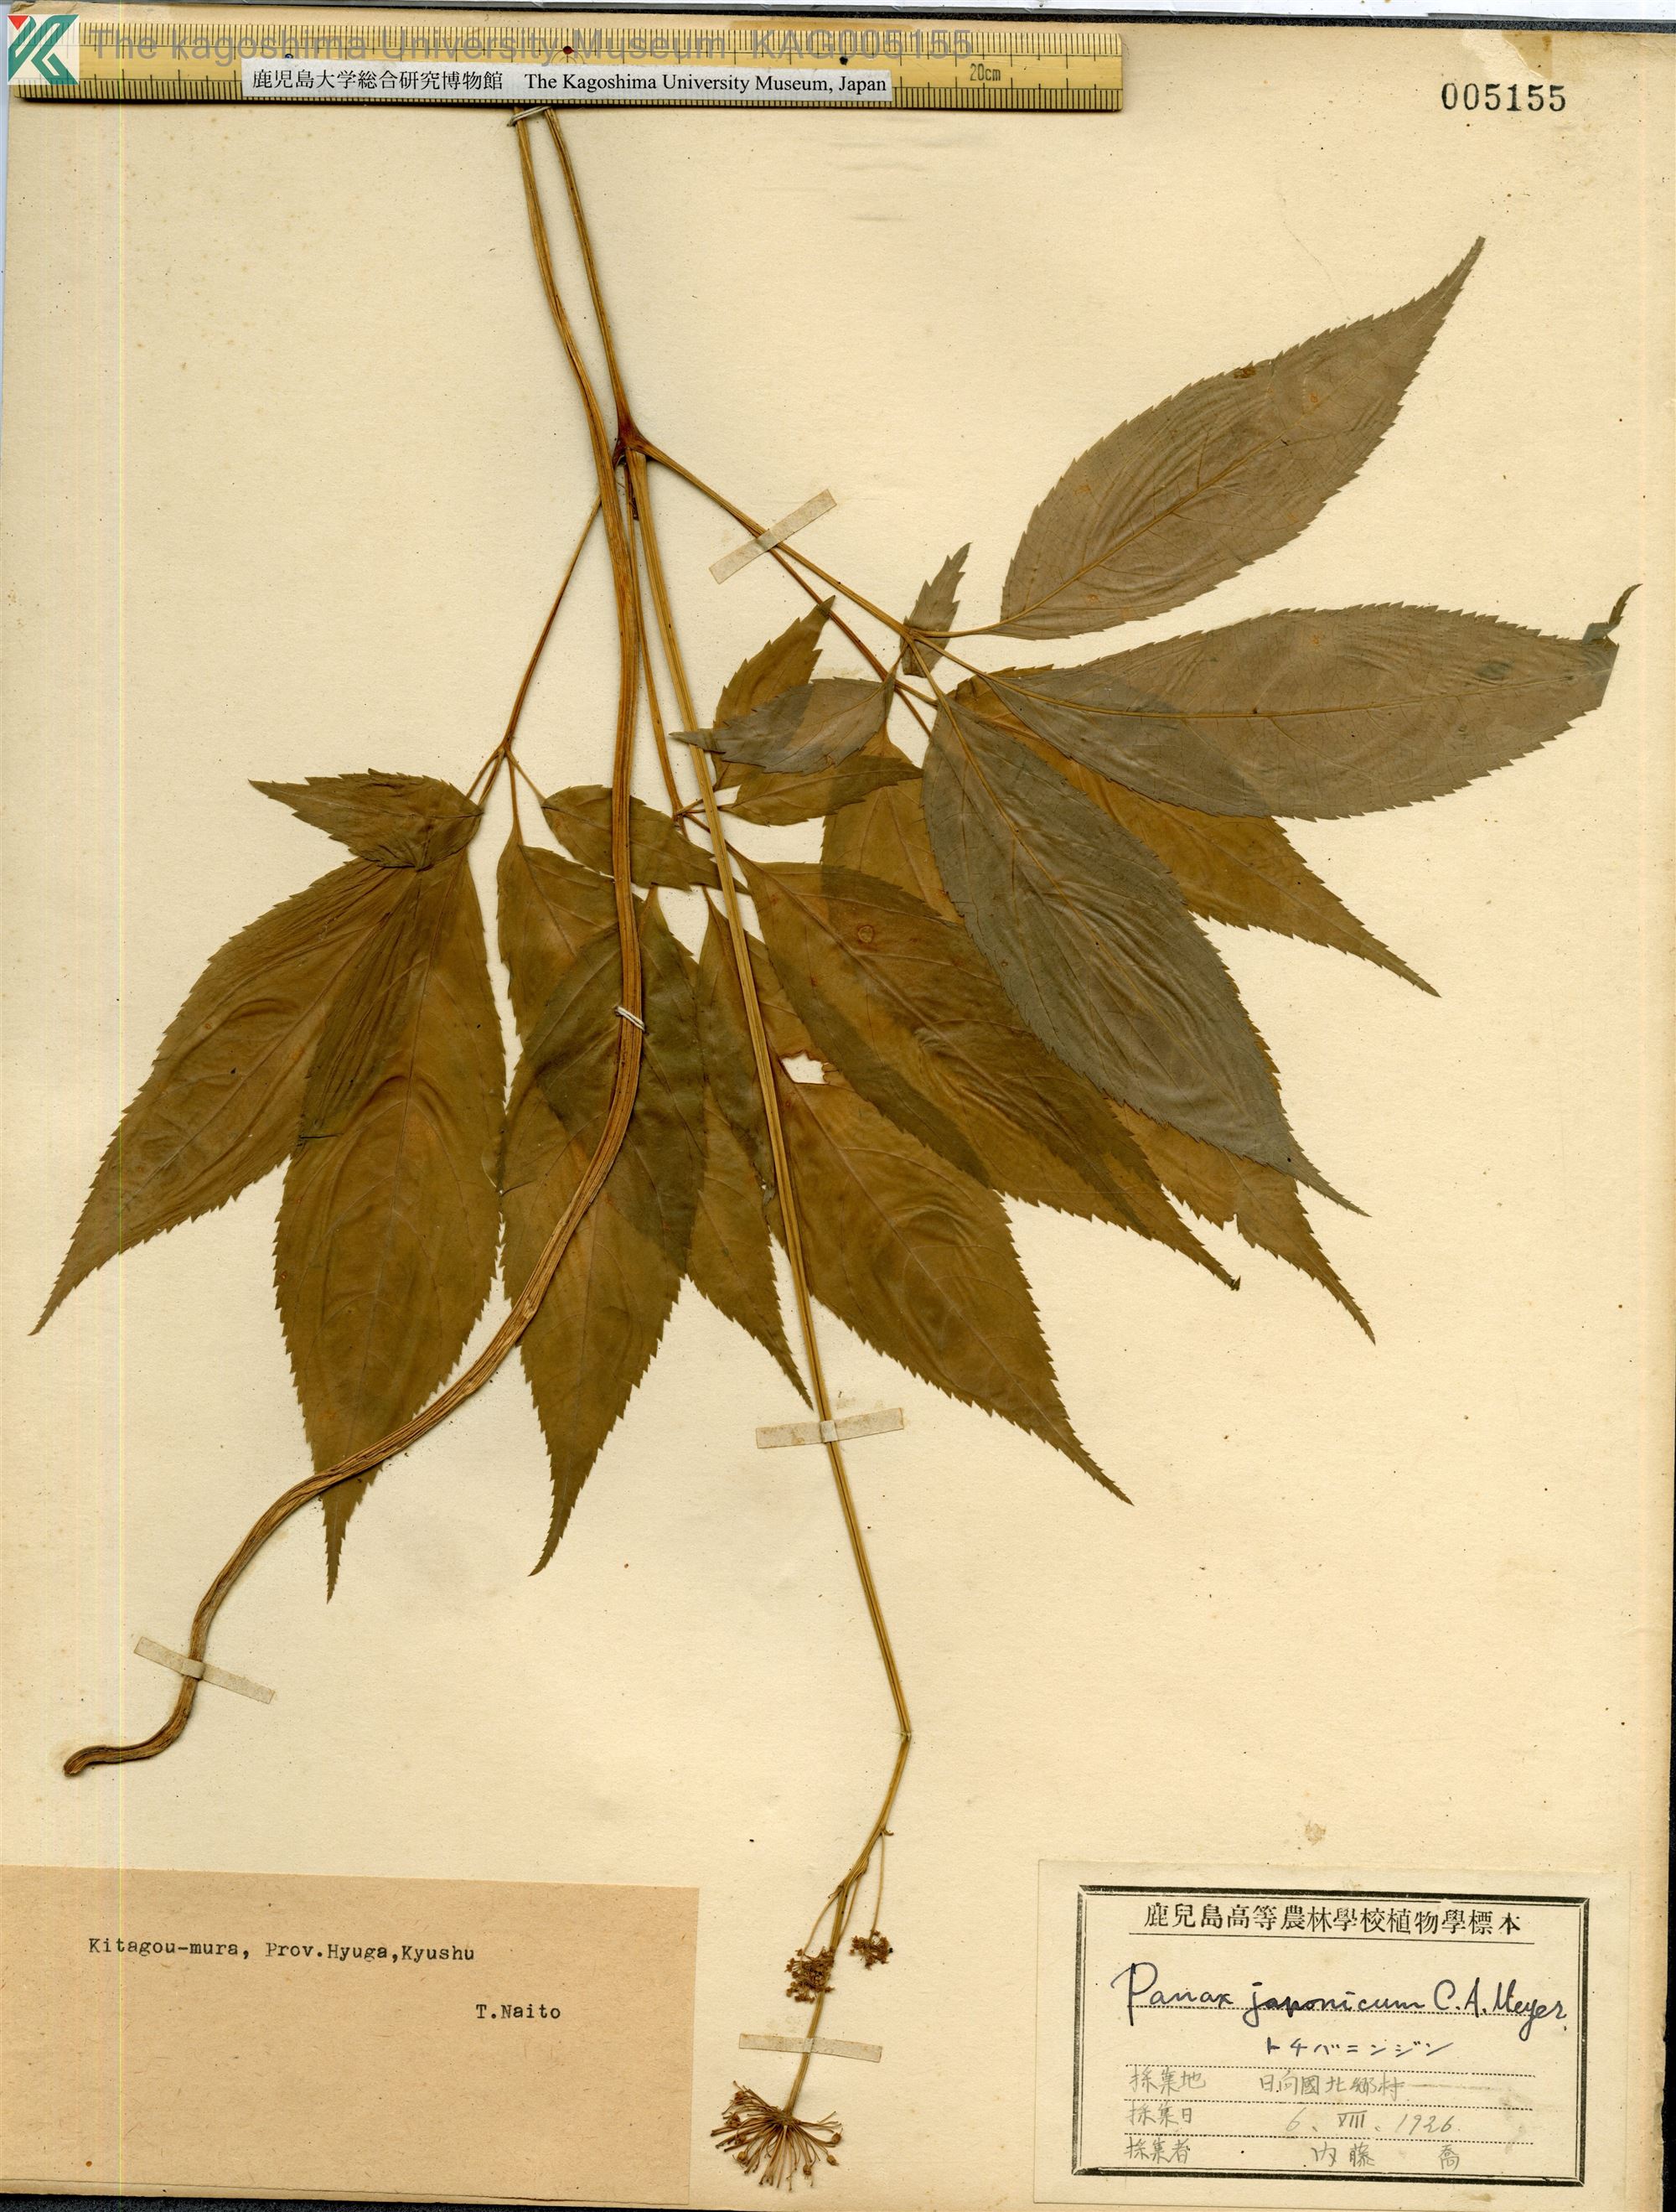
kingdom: Plantae
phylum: Tracheophyta
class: Magnoliopsida
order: Apiales
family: Araliaceae
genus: Panax
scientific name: Panax japonicus
